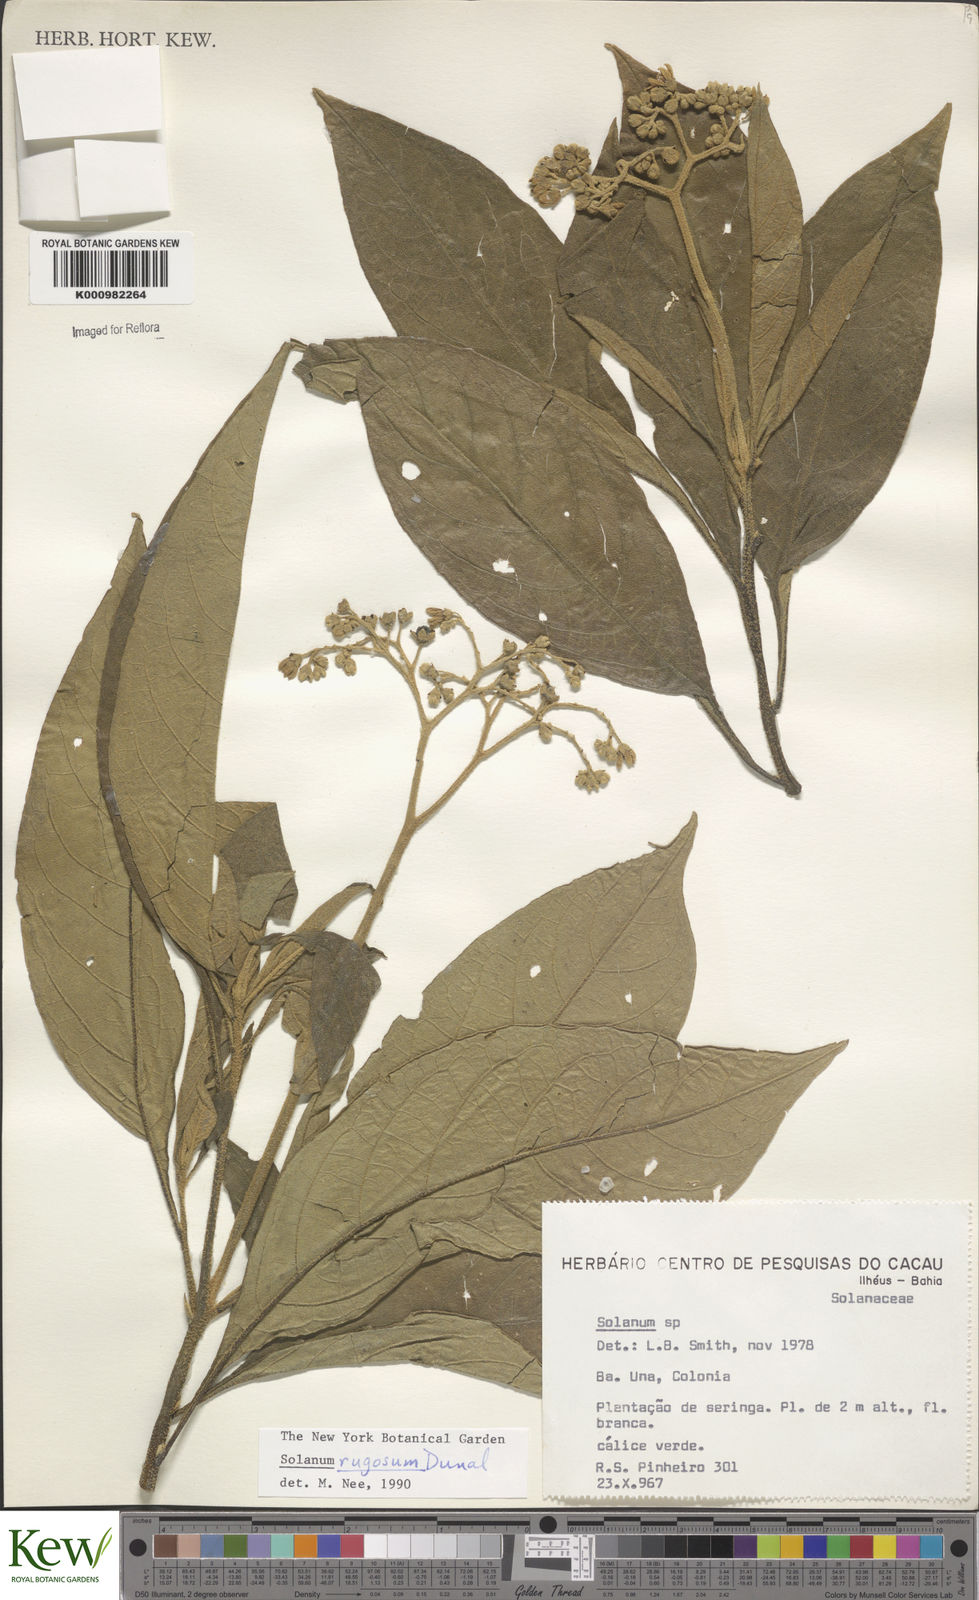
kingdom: Plantae
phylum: Tracheophyta
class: Magnoliopsida
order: Solanales
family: Solanaceae
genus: Solanum
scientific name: Solanum rugosum
